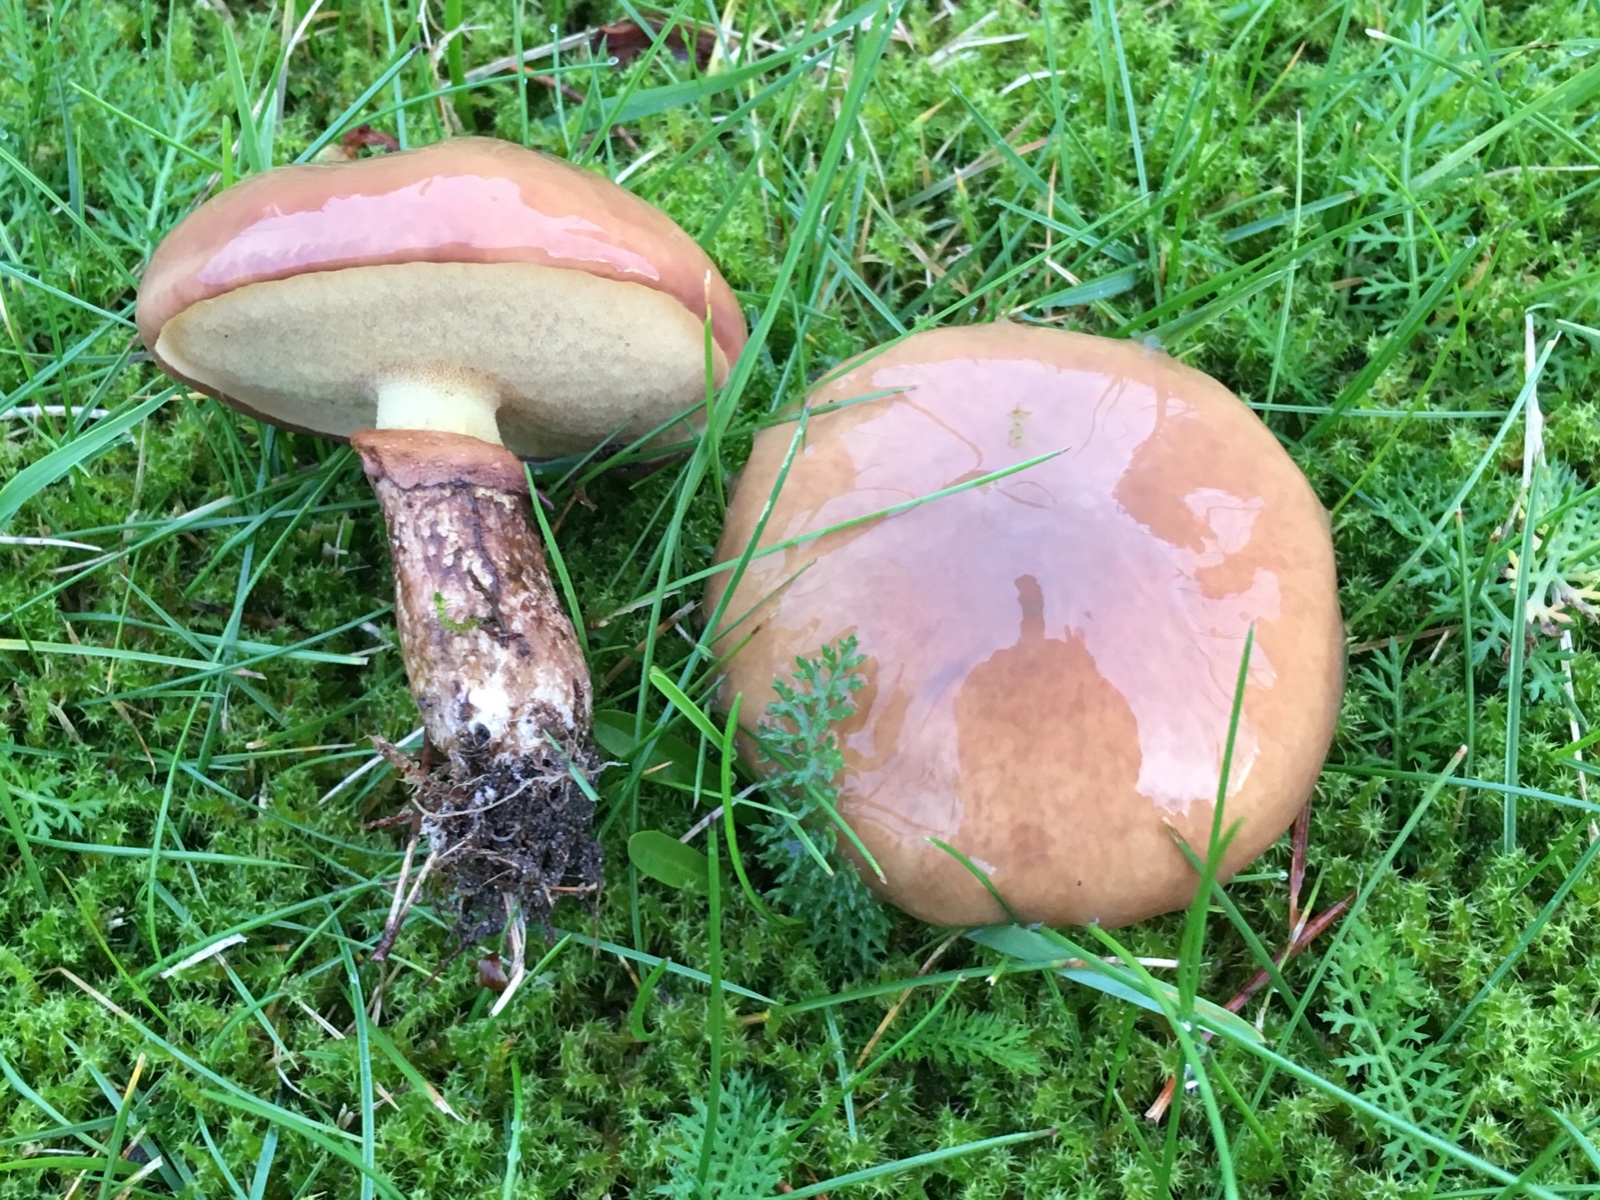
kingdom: Fungi
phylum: Basidiomycota
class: Agaricomycetes
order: Boletales
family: Suillaceae
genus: Suillus
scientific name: Suillus luteus
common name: brungul slimrørhat
